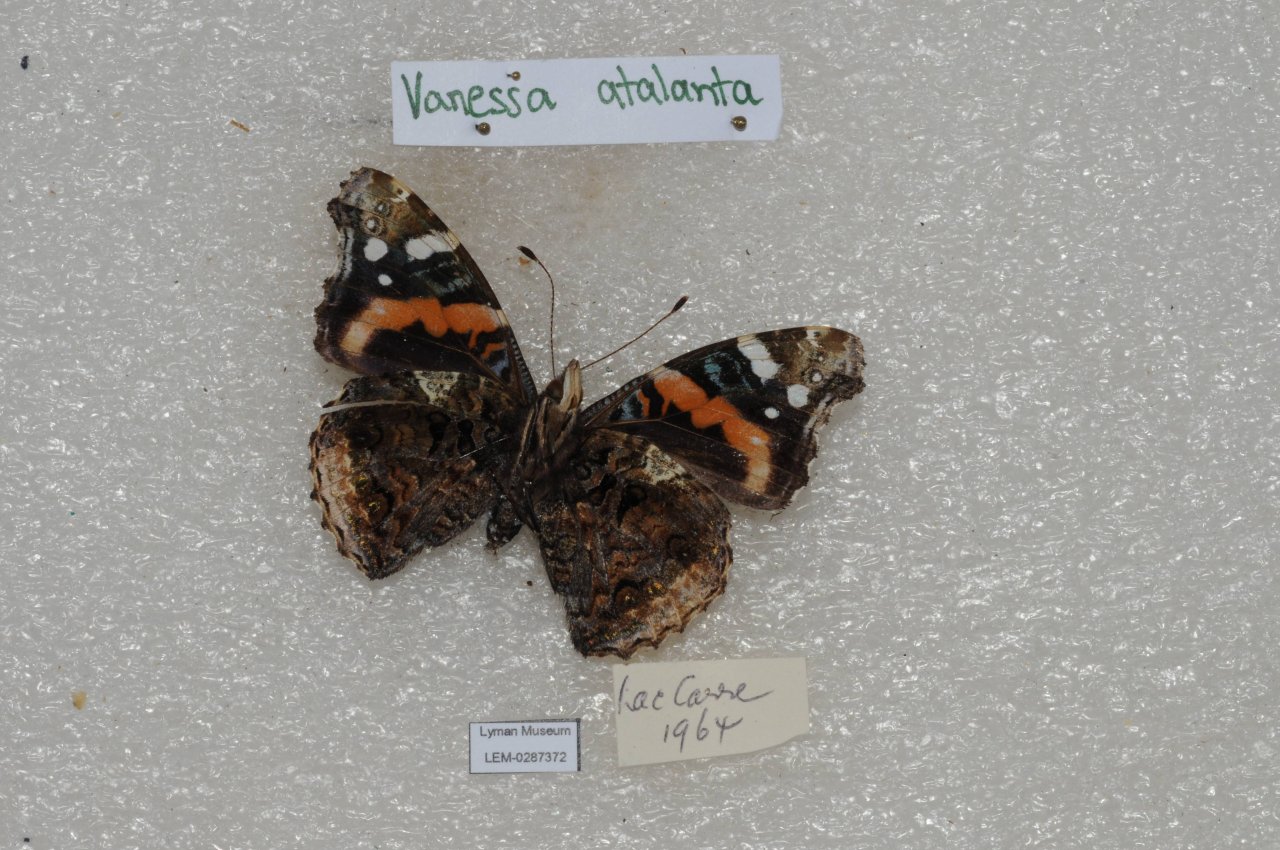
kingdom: Animalia
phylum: Arthropoda
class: Insecta
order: Lepidoptera
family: Nymphalidae
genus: Vanessa
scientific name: Vanessa atalanta
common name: Red Admiral
